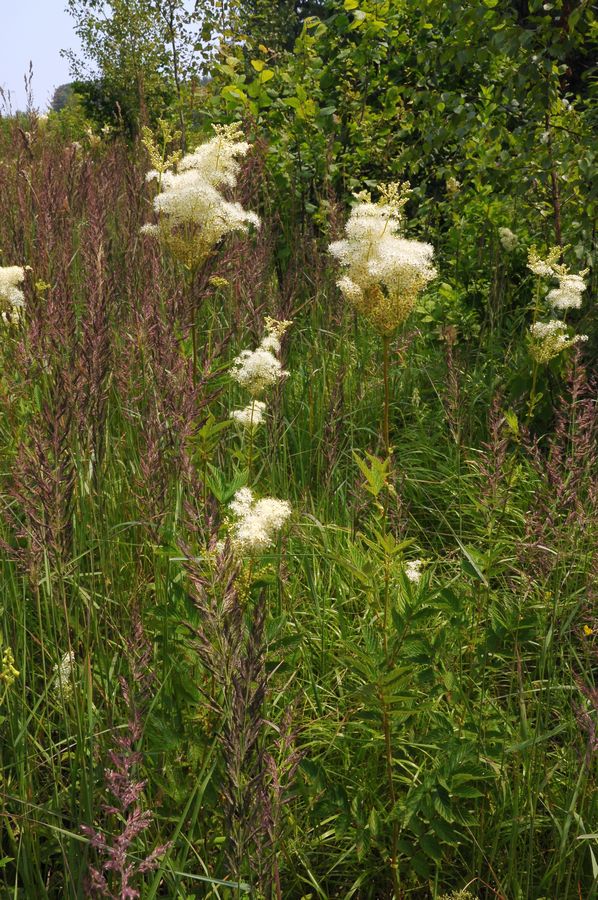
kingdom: Plantae
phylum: Tracheophyta
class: Magnoliopsida
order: Rosales
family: Rosaceae
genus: Filipendula
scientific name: Filipendula ulmaria
